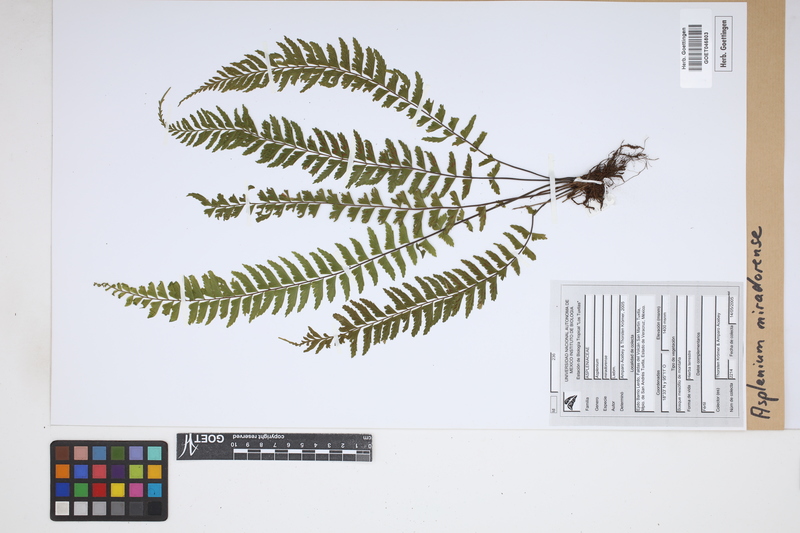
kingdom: Plantae
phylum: Tracheophyta
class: Polypodiopsida
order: Polypodiales
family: Aspleniaceae
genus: Asplenium
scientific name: Asplenium miradorense
